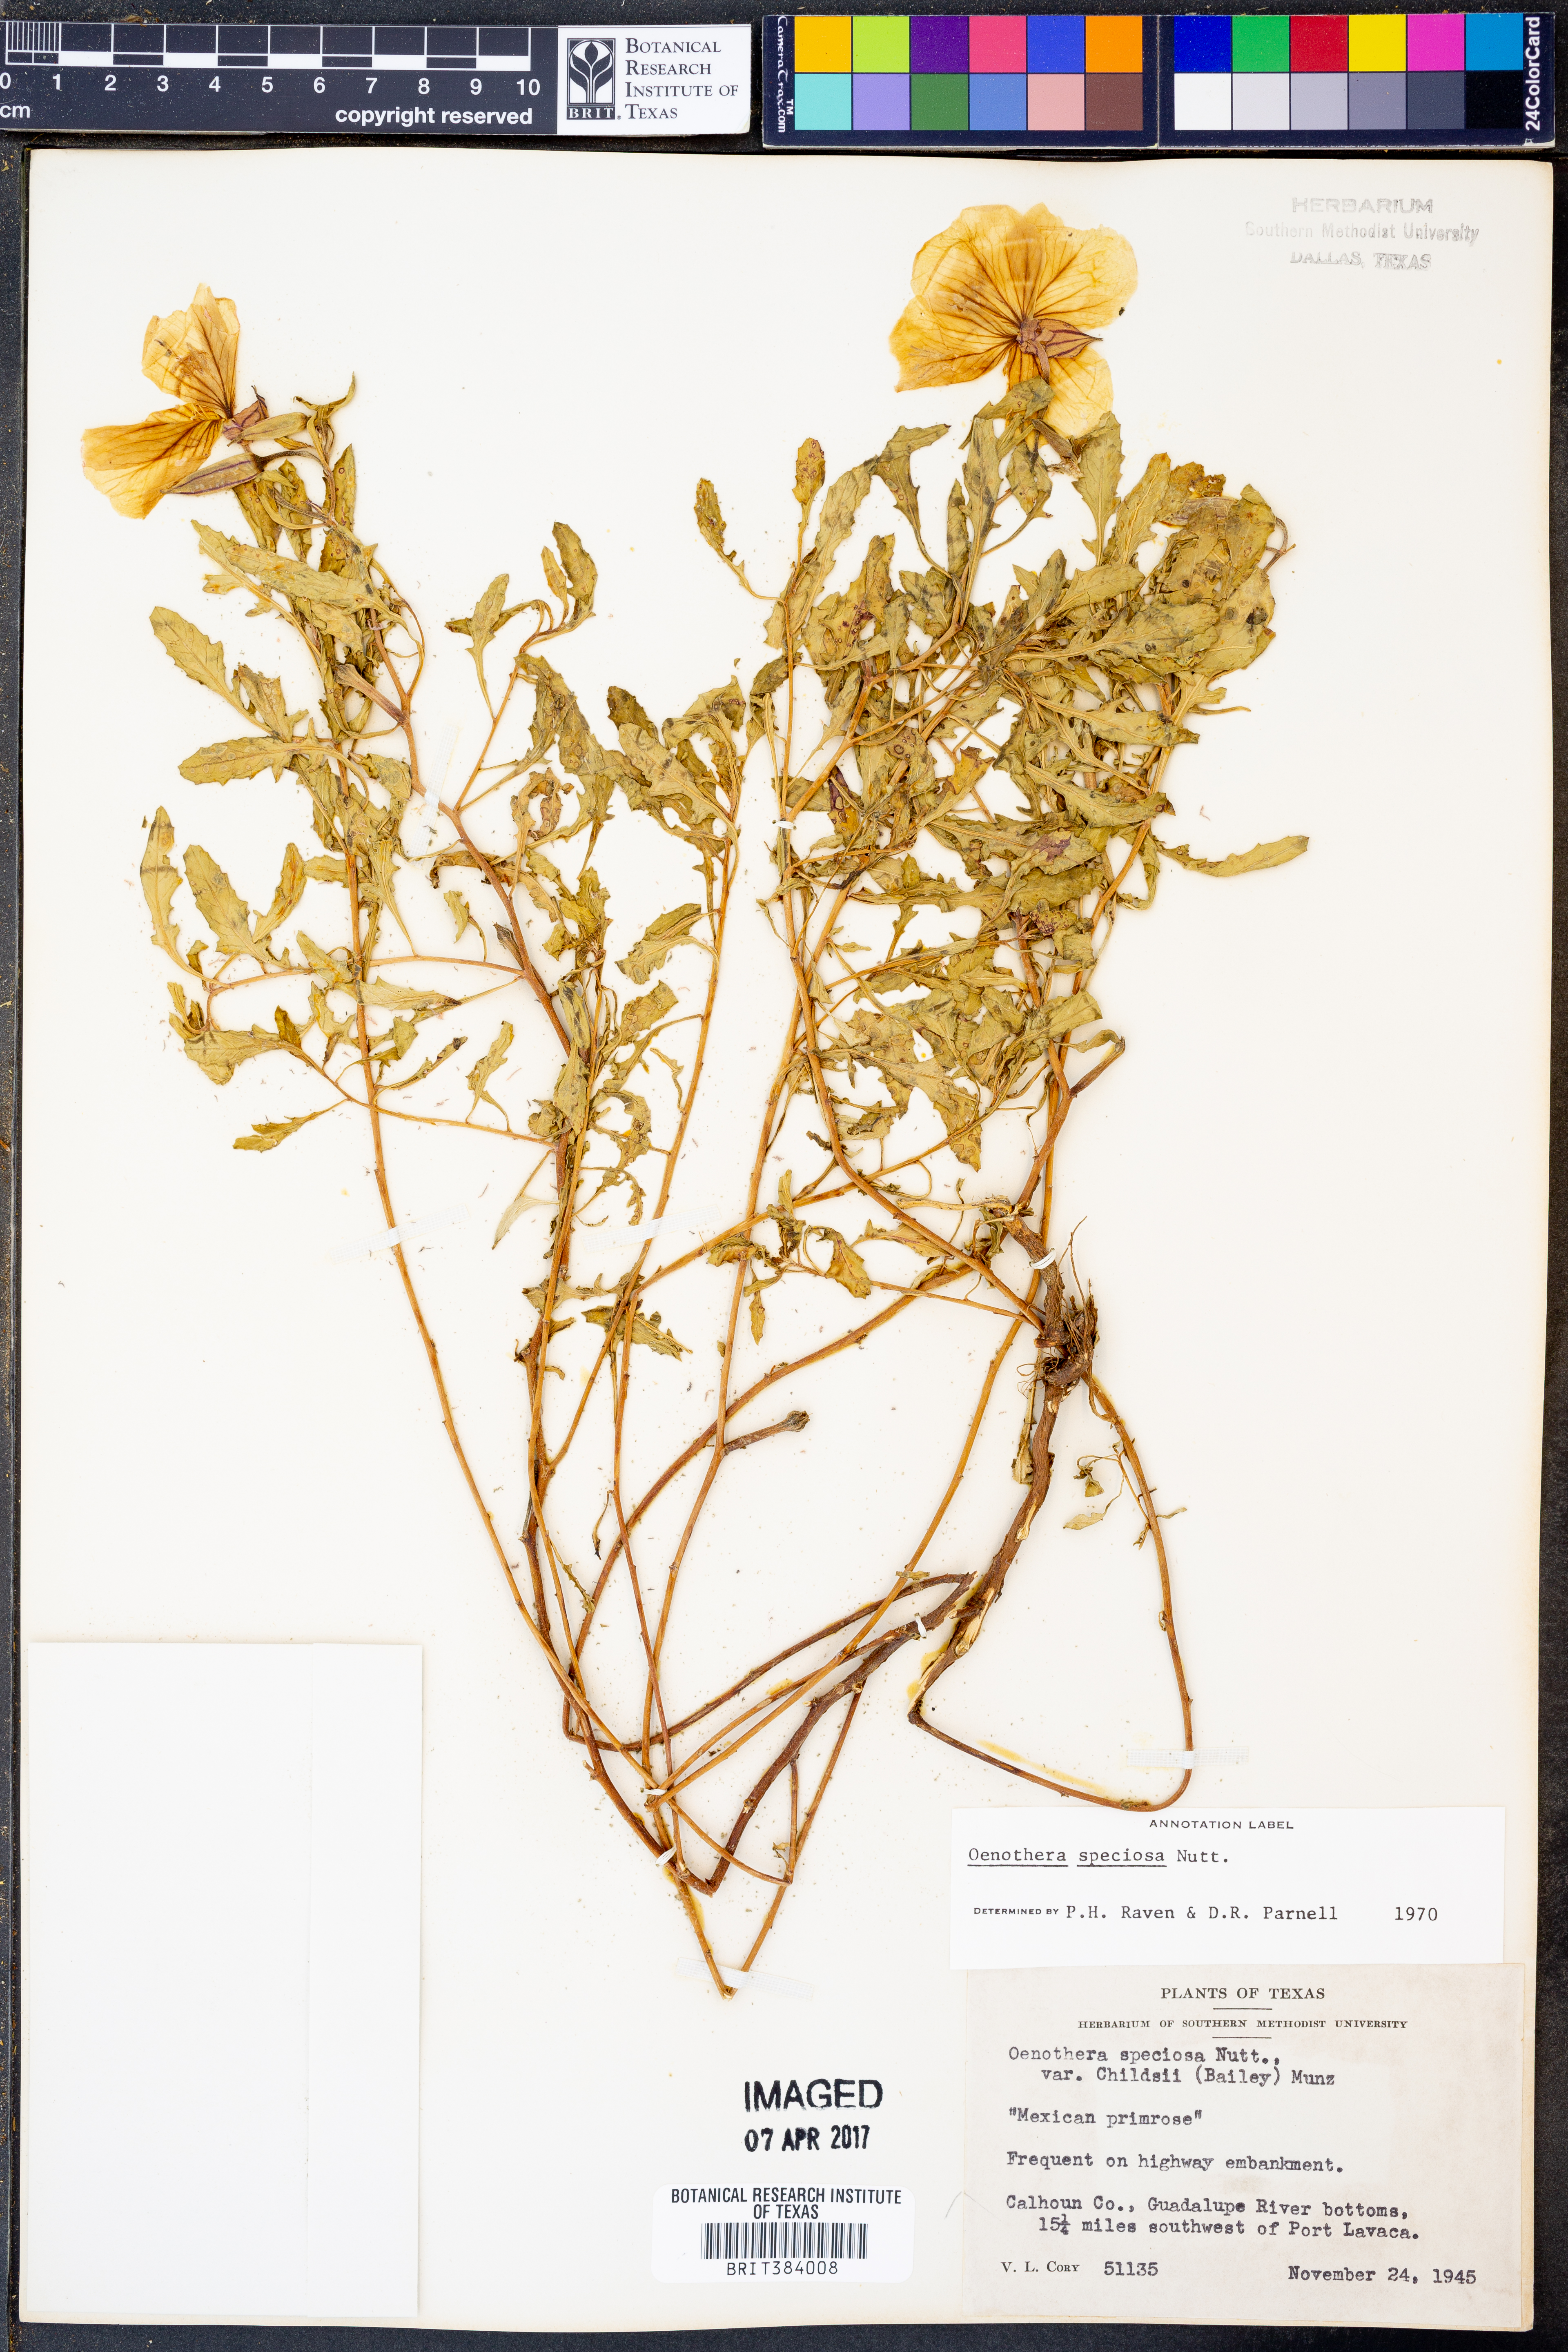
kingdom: Plantae
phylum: Tracheophyta
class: Magnoliopsida
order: Myrtales
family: Onagraceae
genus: Oenothera
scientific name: Oenothera speciosa
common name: White evening-primrose
